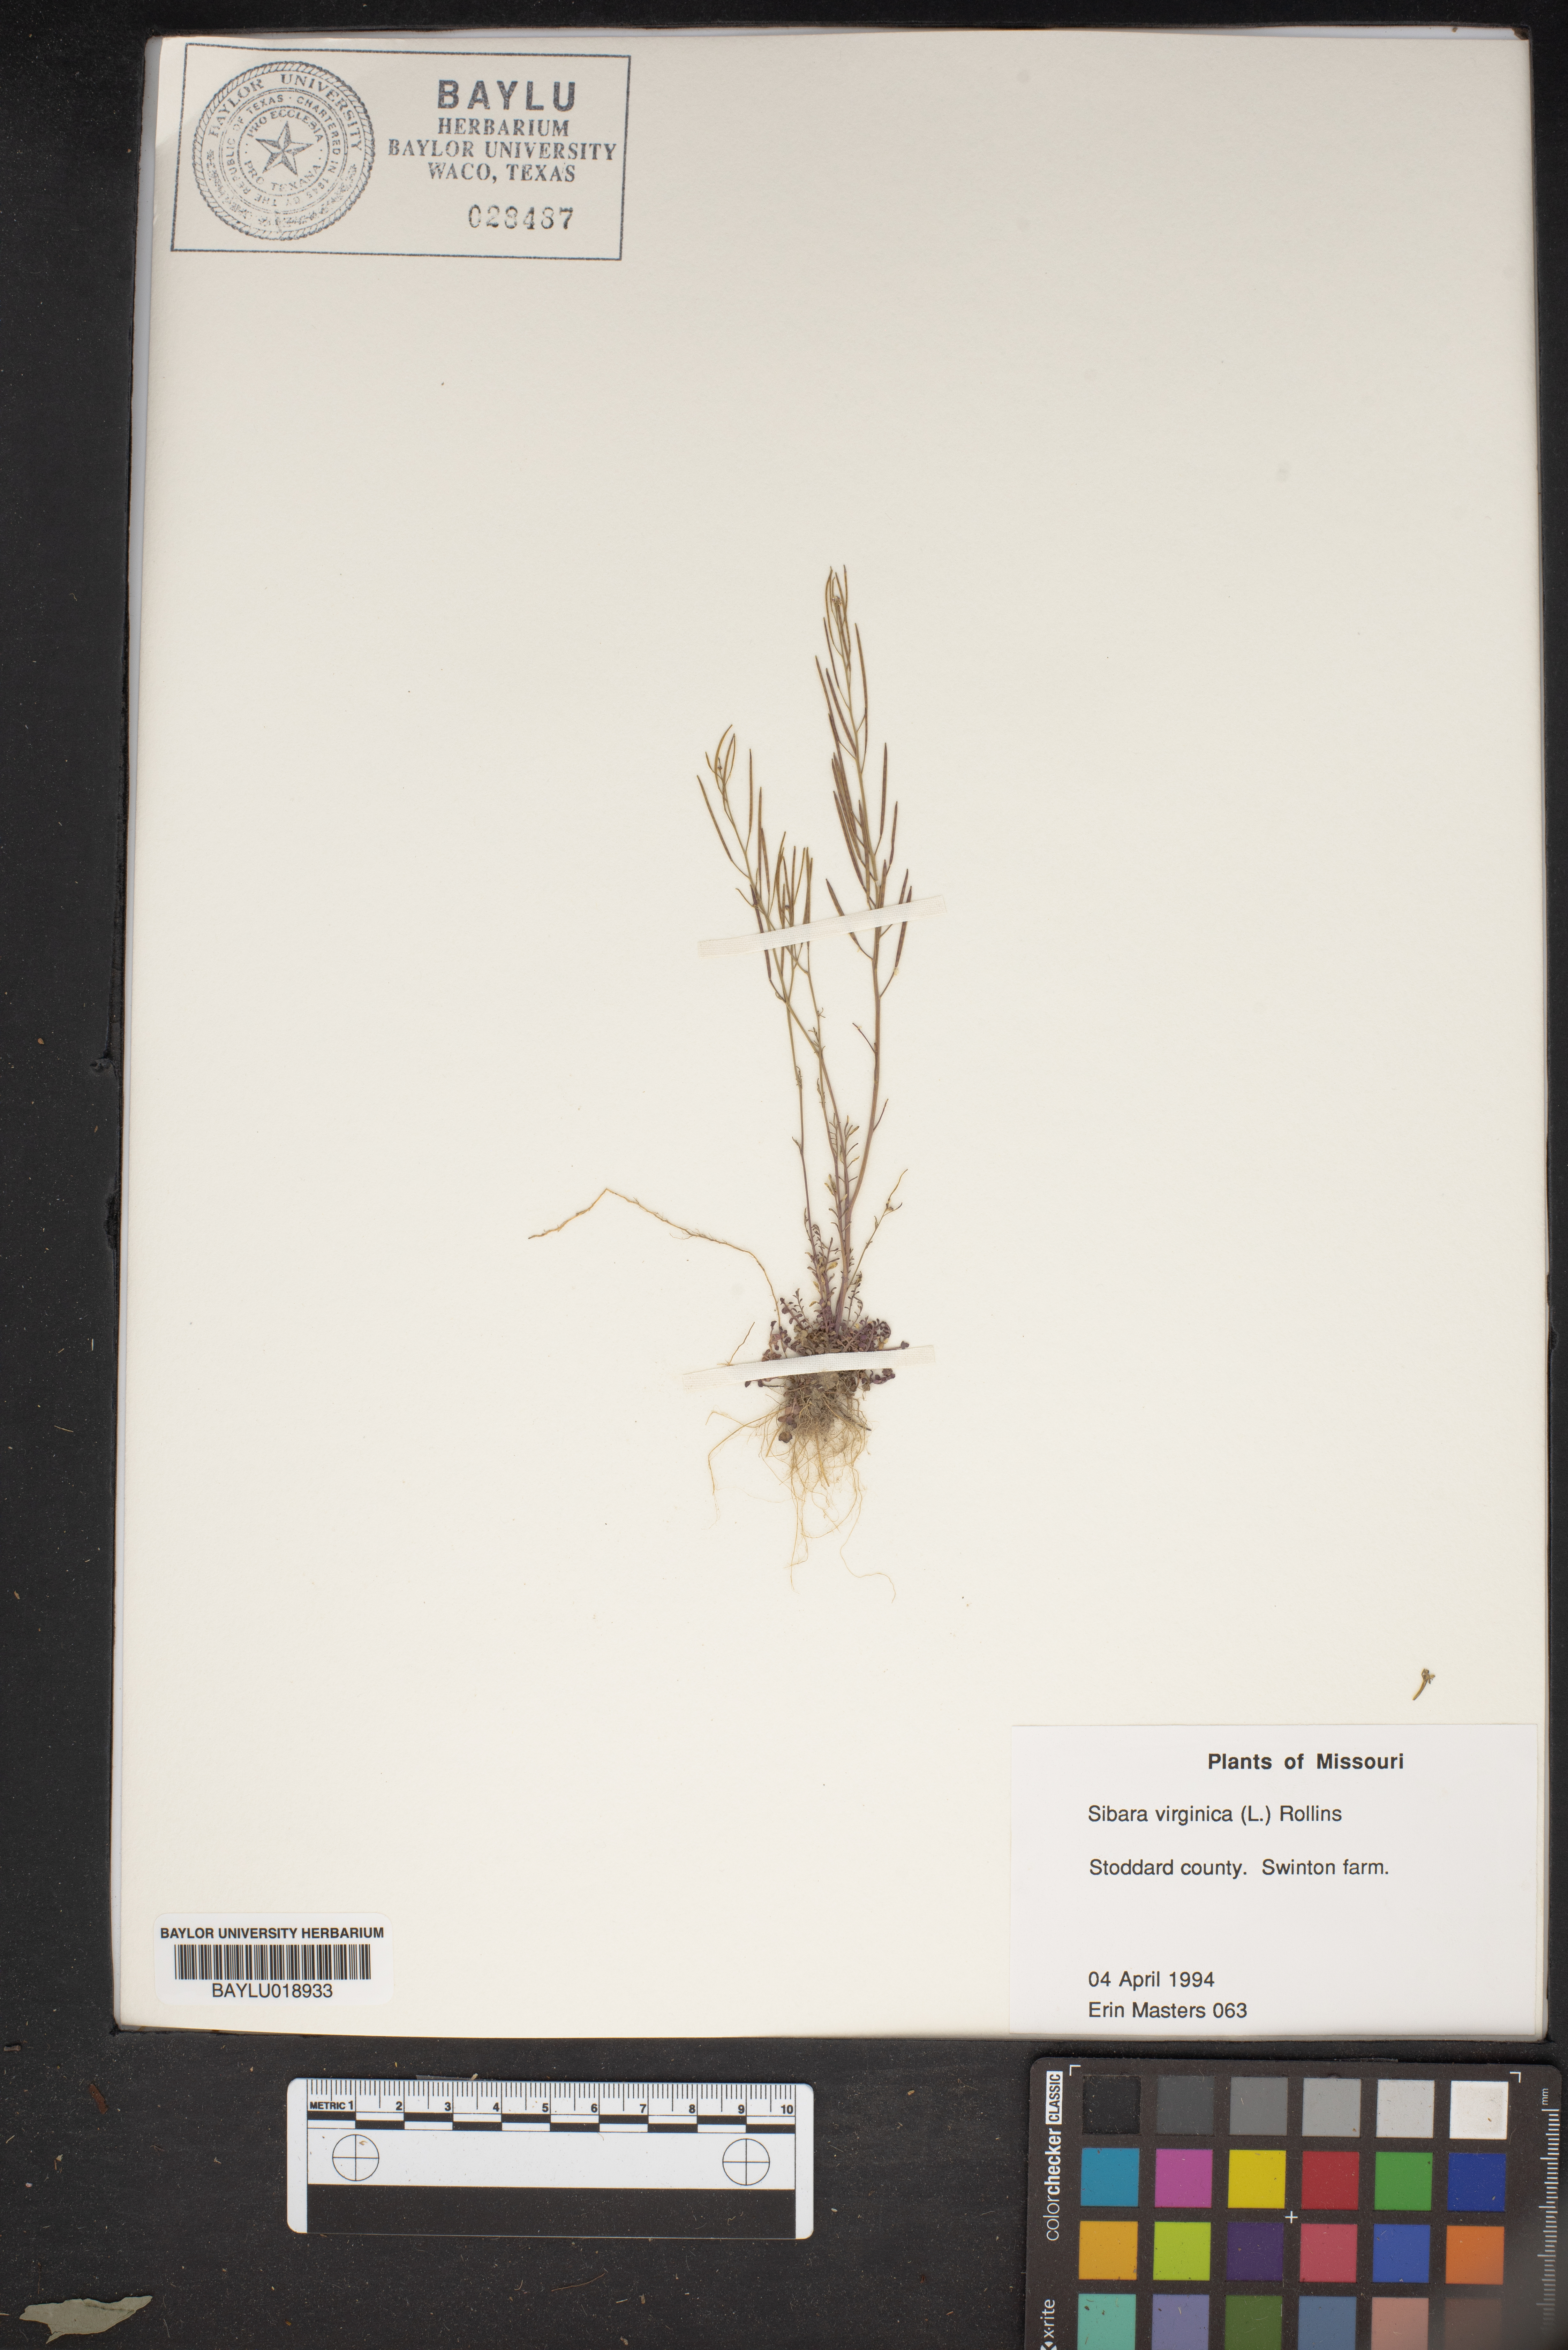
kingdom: Plantae
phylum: Tracheophyta
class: Magnoliopsida
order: Brassicales
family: Brassicaceae
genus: Planodes
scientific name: Planodes virginicum
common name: Virginia cress
